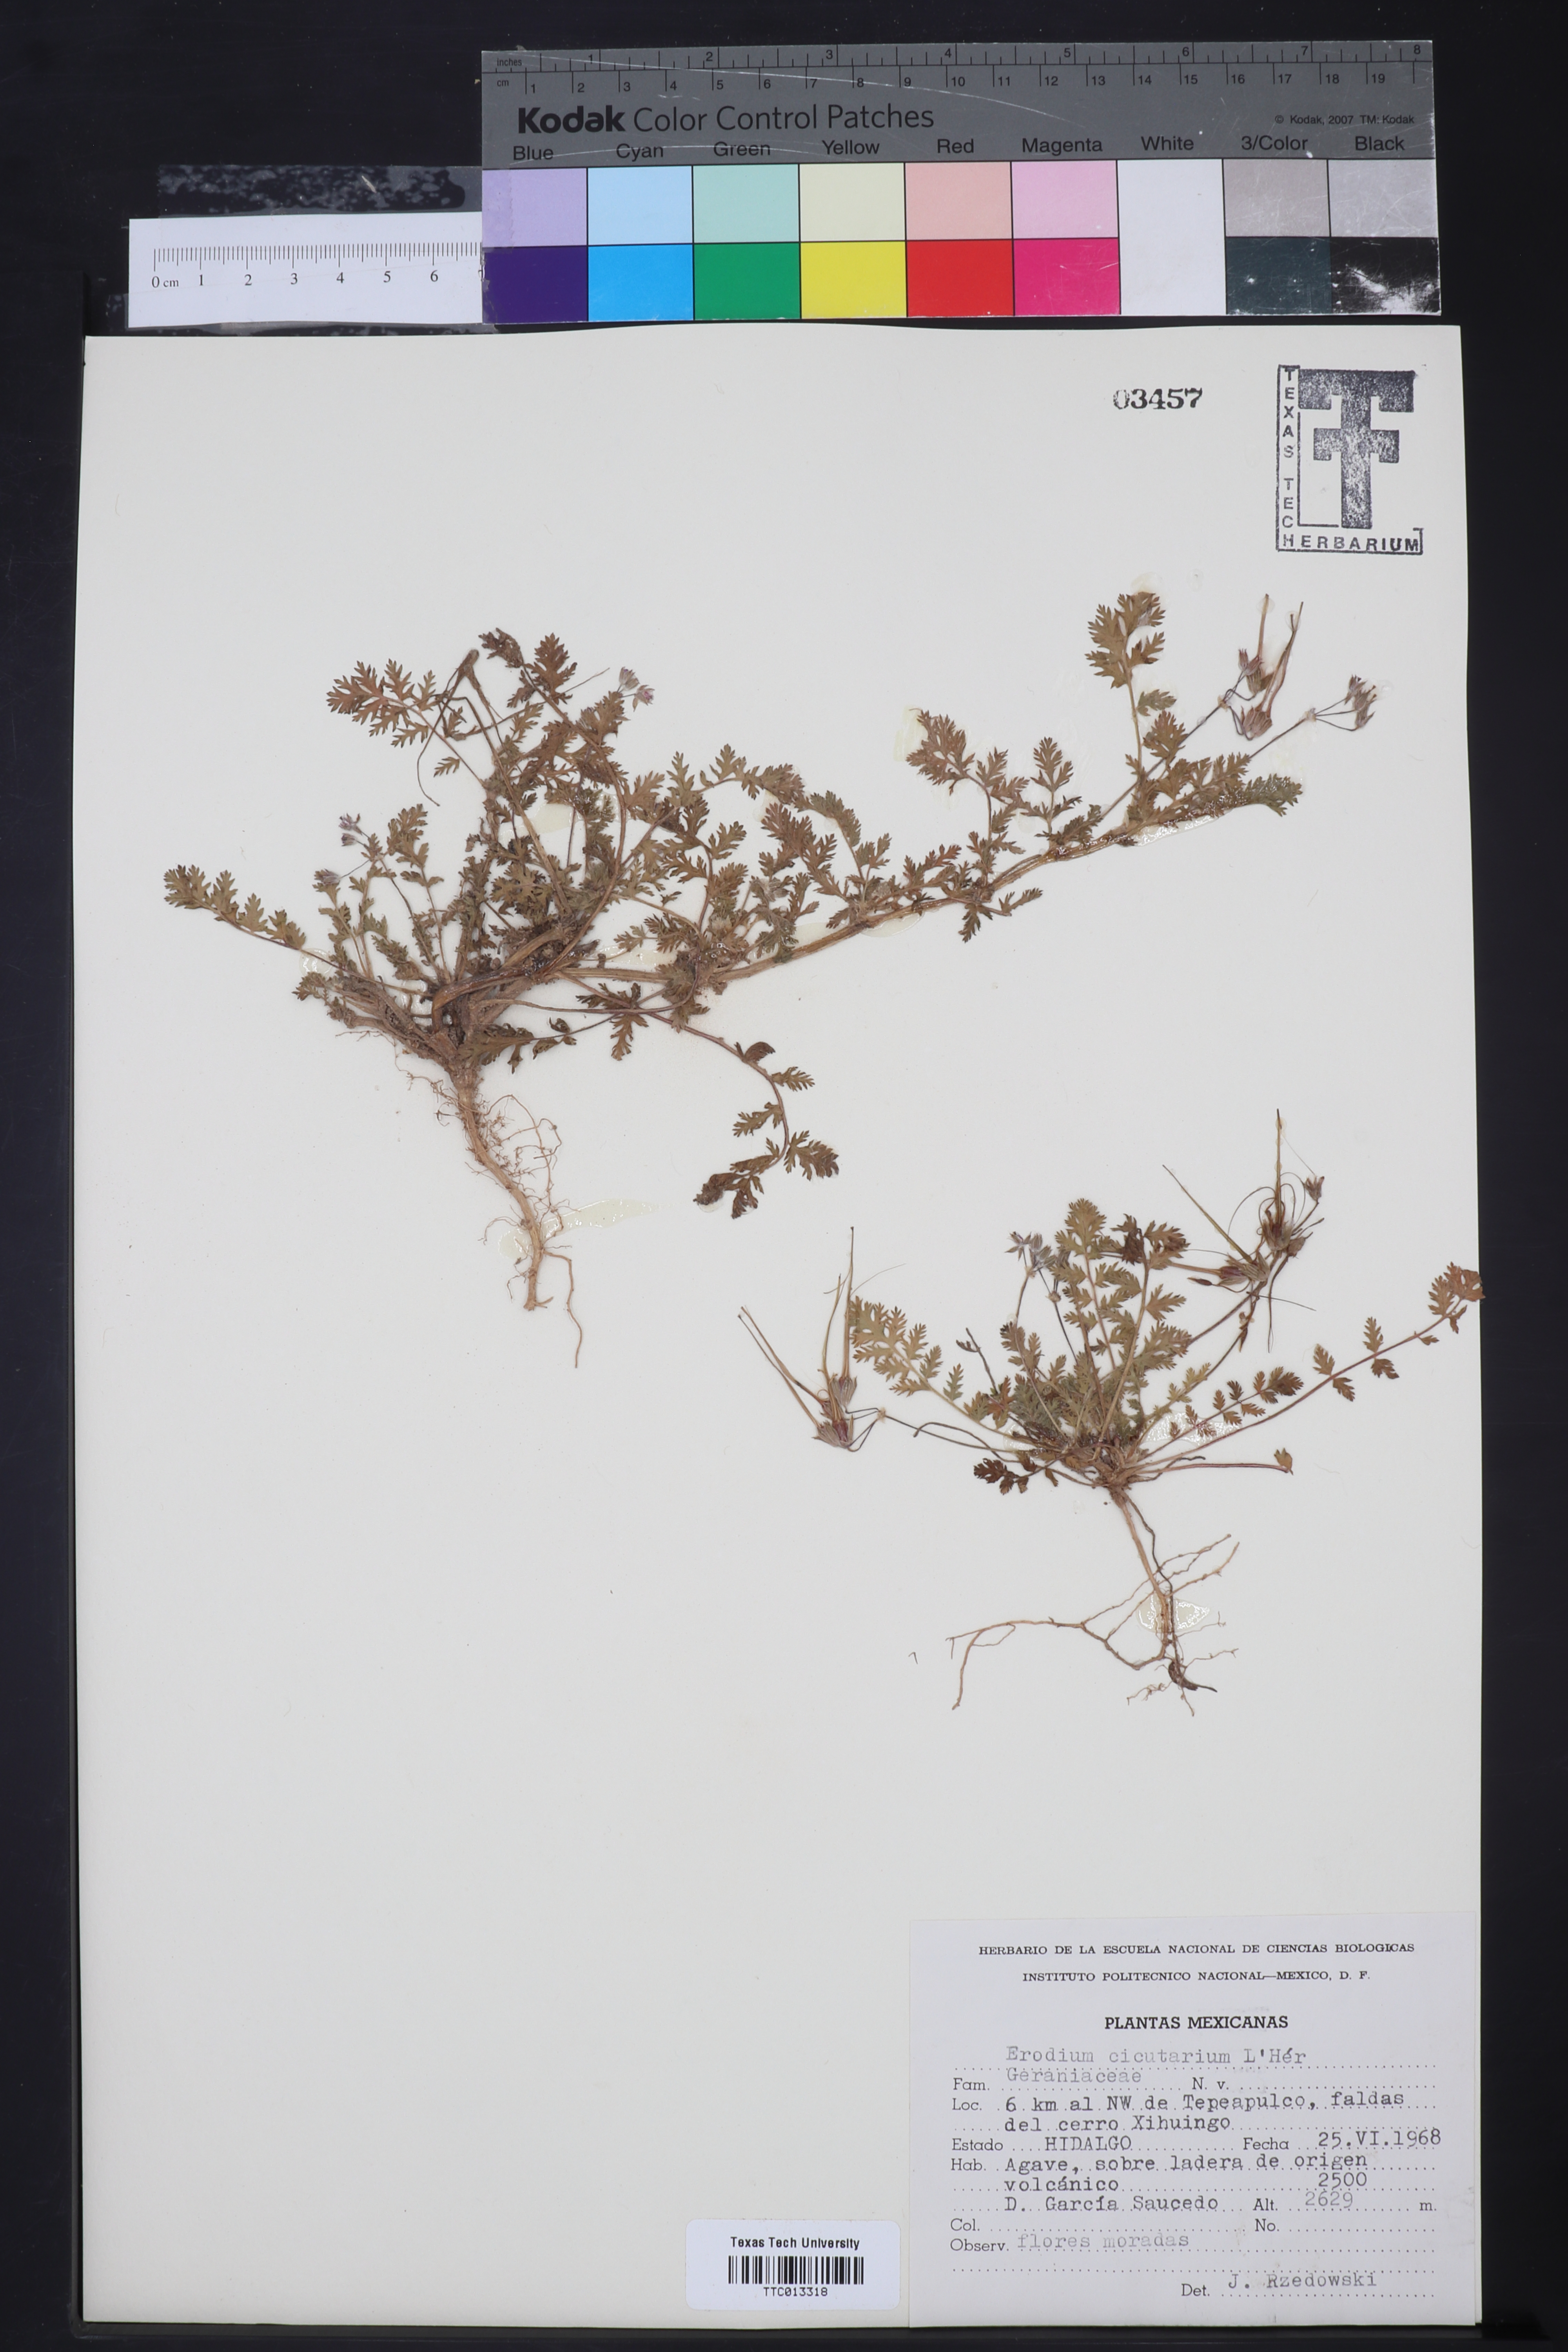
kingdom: Plantae
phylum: Tracheophyta
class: Magnoliopsida
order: Geraniales
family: Geraniaceae
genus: Erodium
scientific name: Erodium cicutarium
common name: Common stork's-bill
